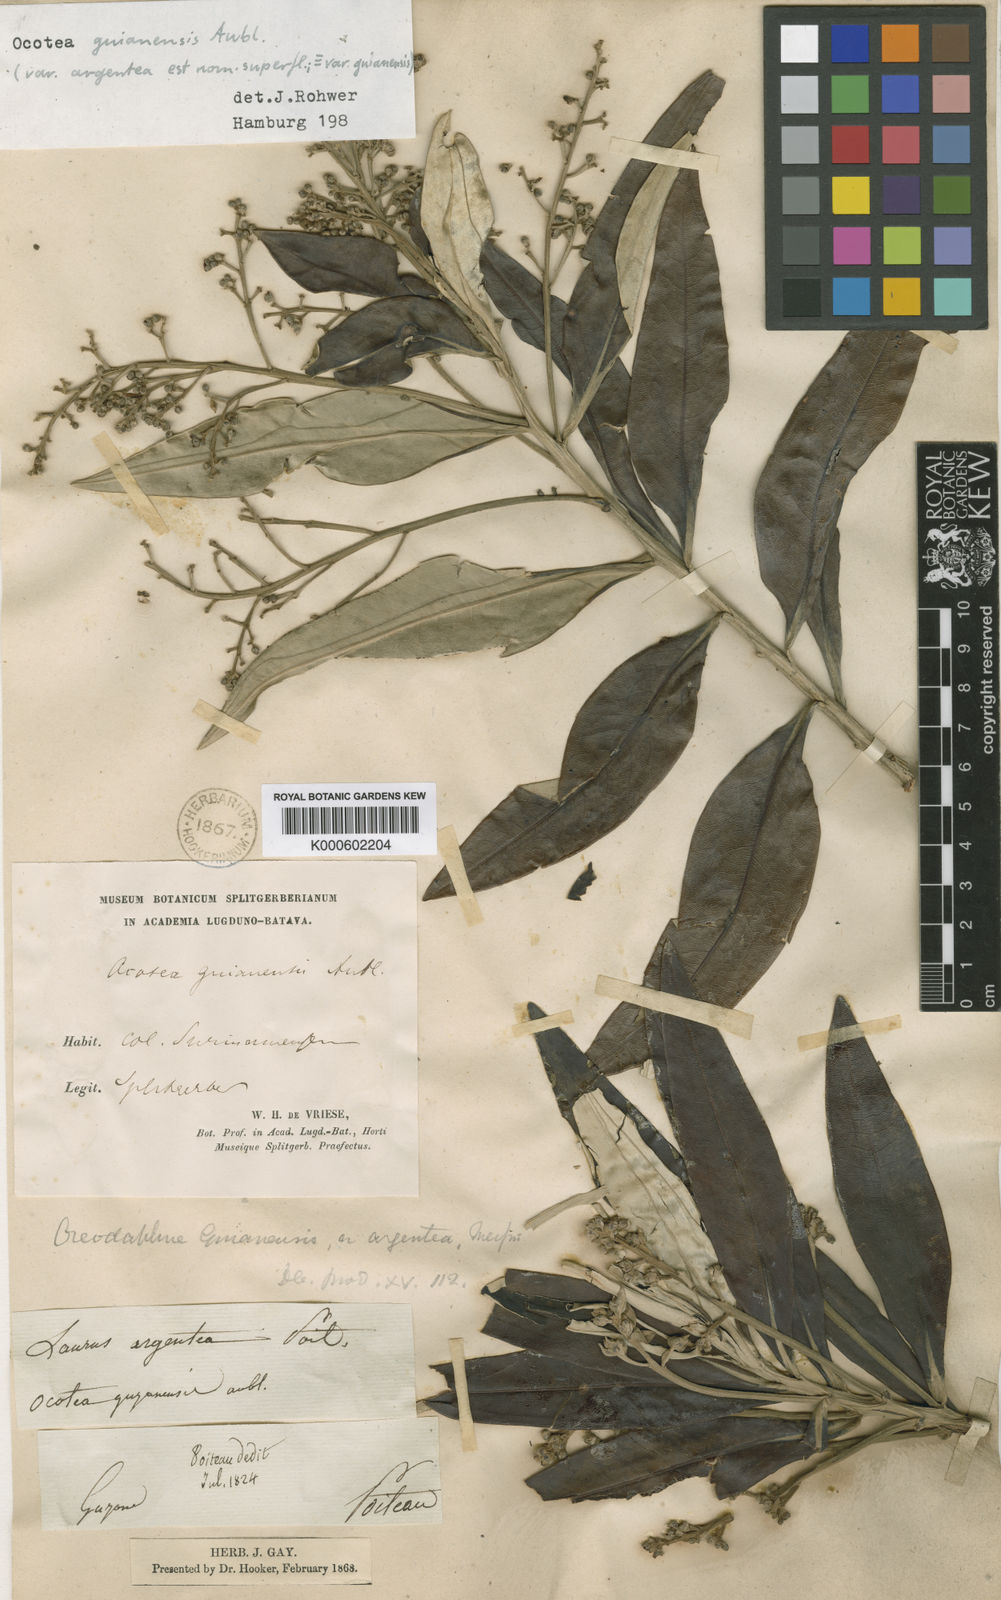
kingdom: Plantae
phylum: Tracheophyta
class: Magnoliopsida
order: Laurales
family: Lauraceae
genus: Ocotea
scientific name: Ocotea guianensis
